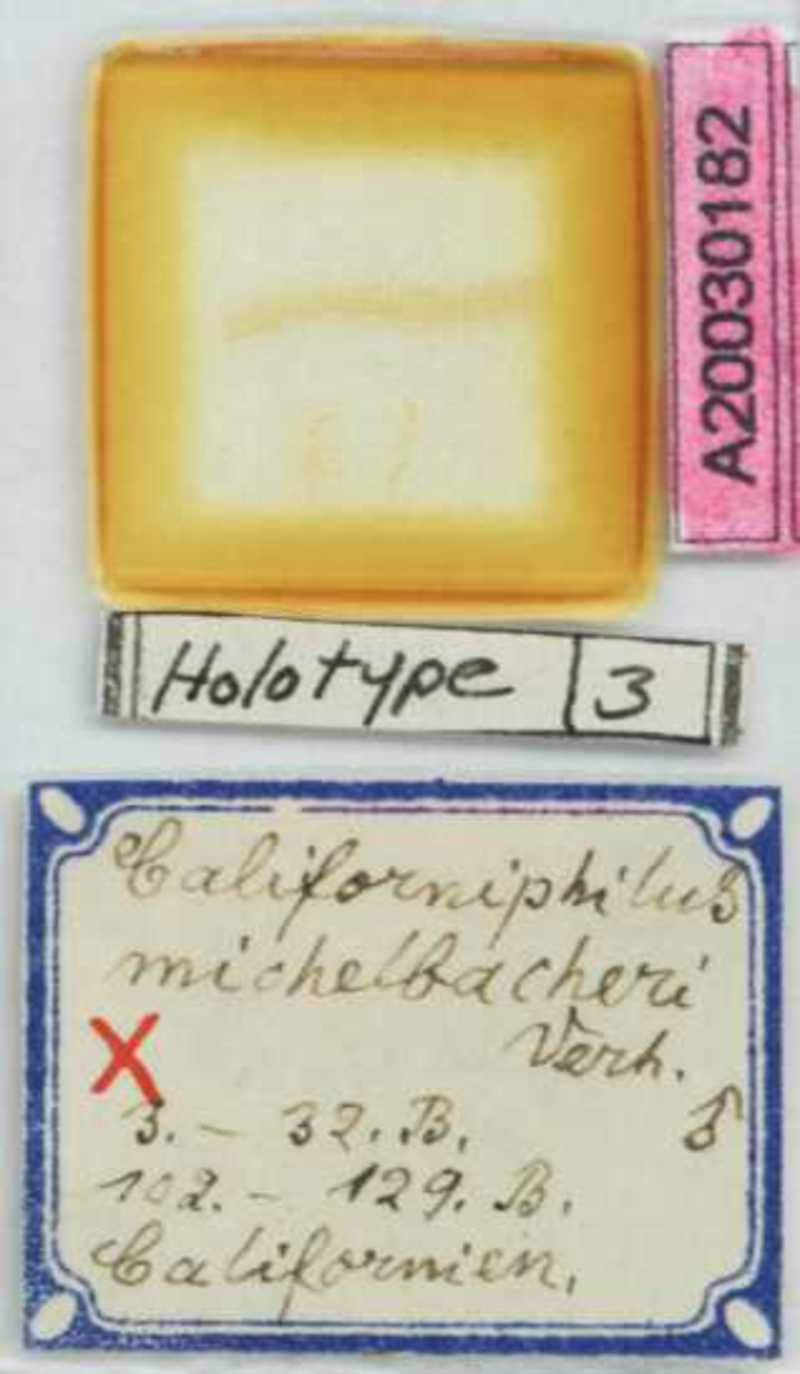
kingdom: Animalia
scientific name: Animalia
